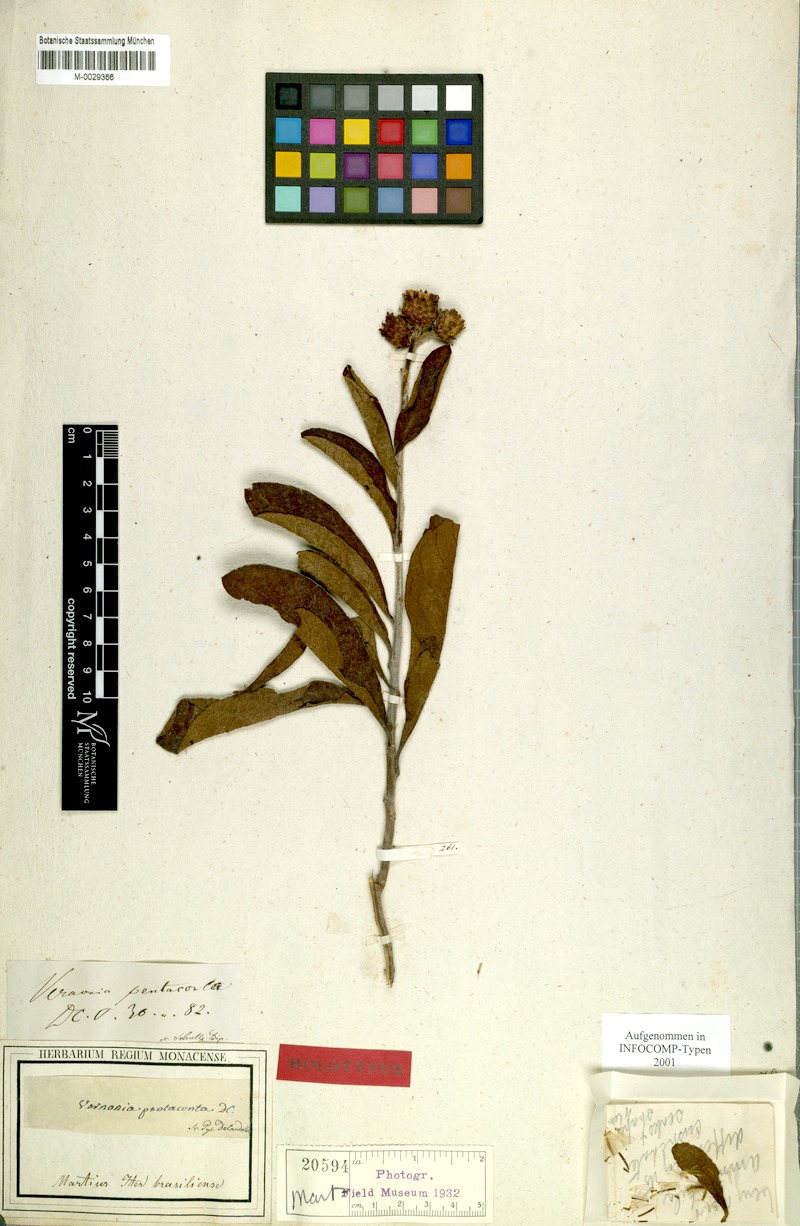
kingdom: Plantae
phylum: Tracheophyta
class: Magnoliopsida
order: Asterales
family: Asteraceae
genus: Lessingianthus
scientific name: Lessingianthus pentacontus
